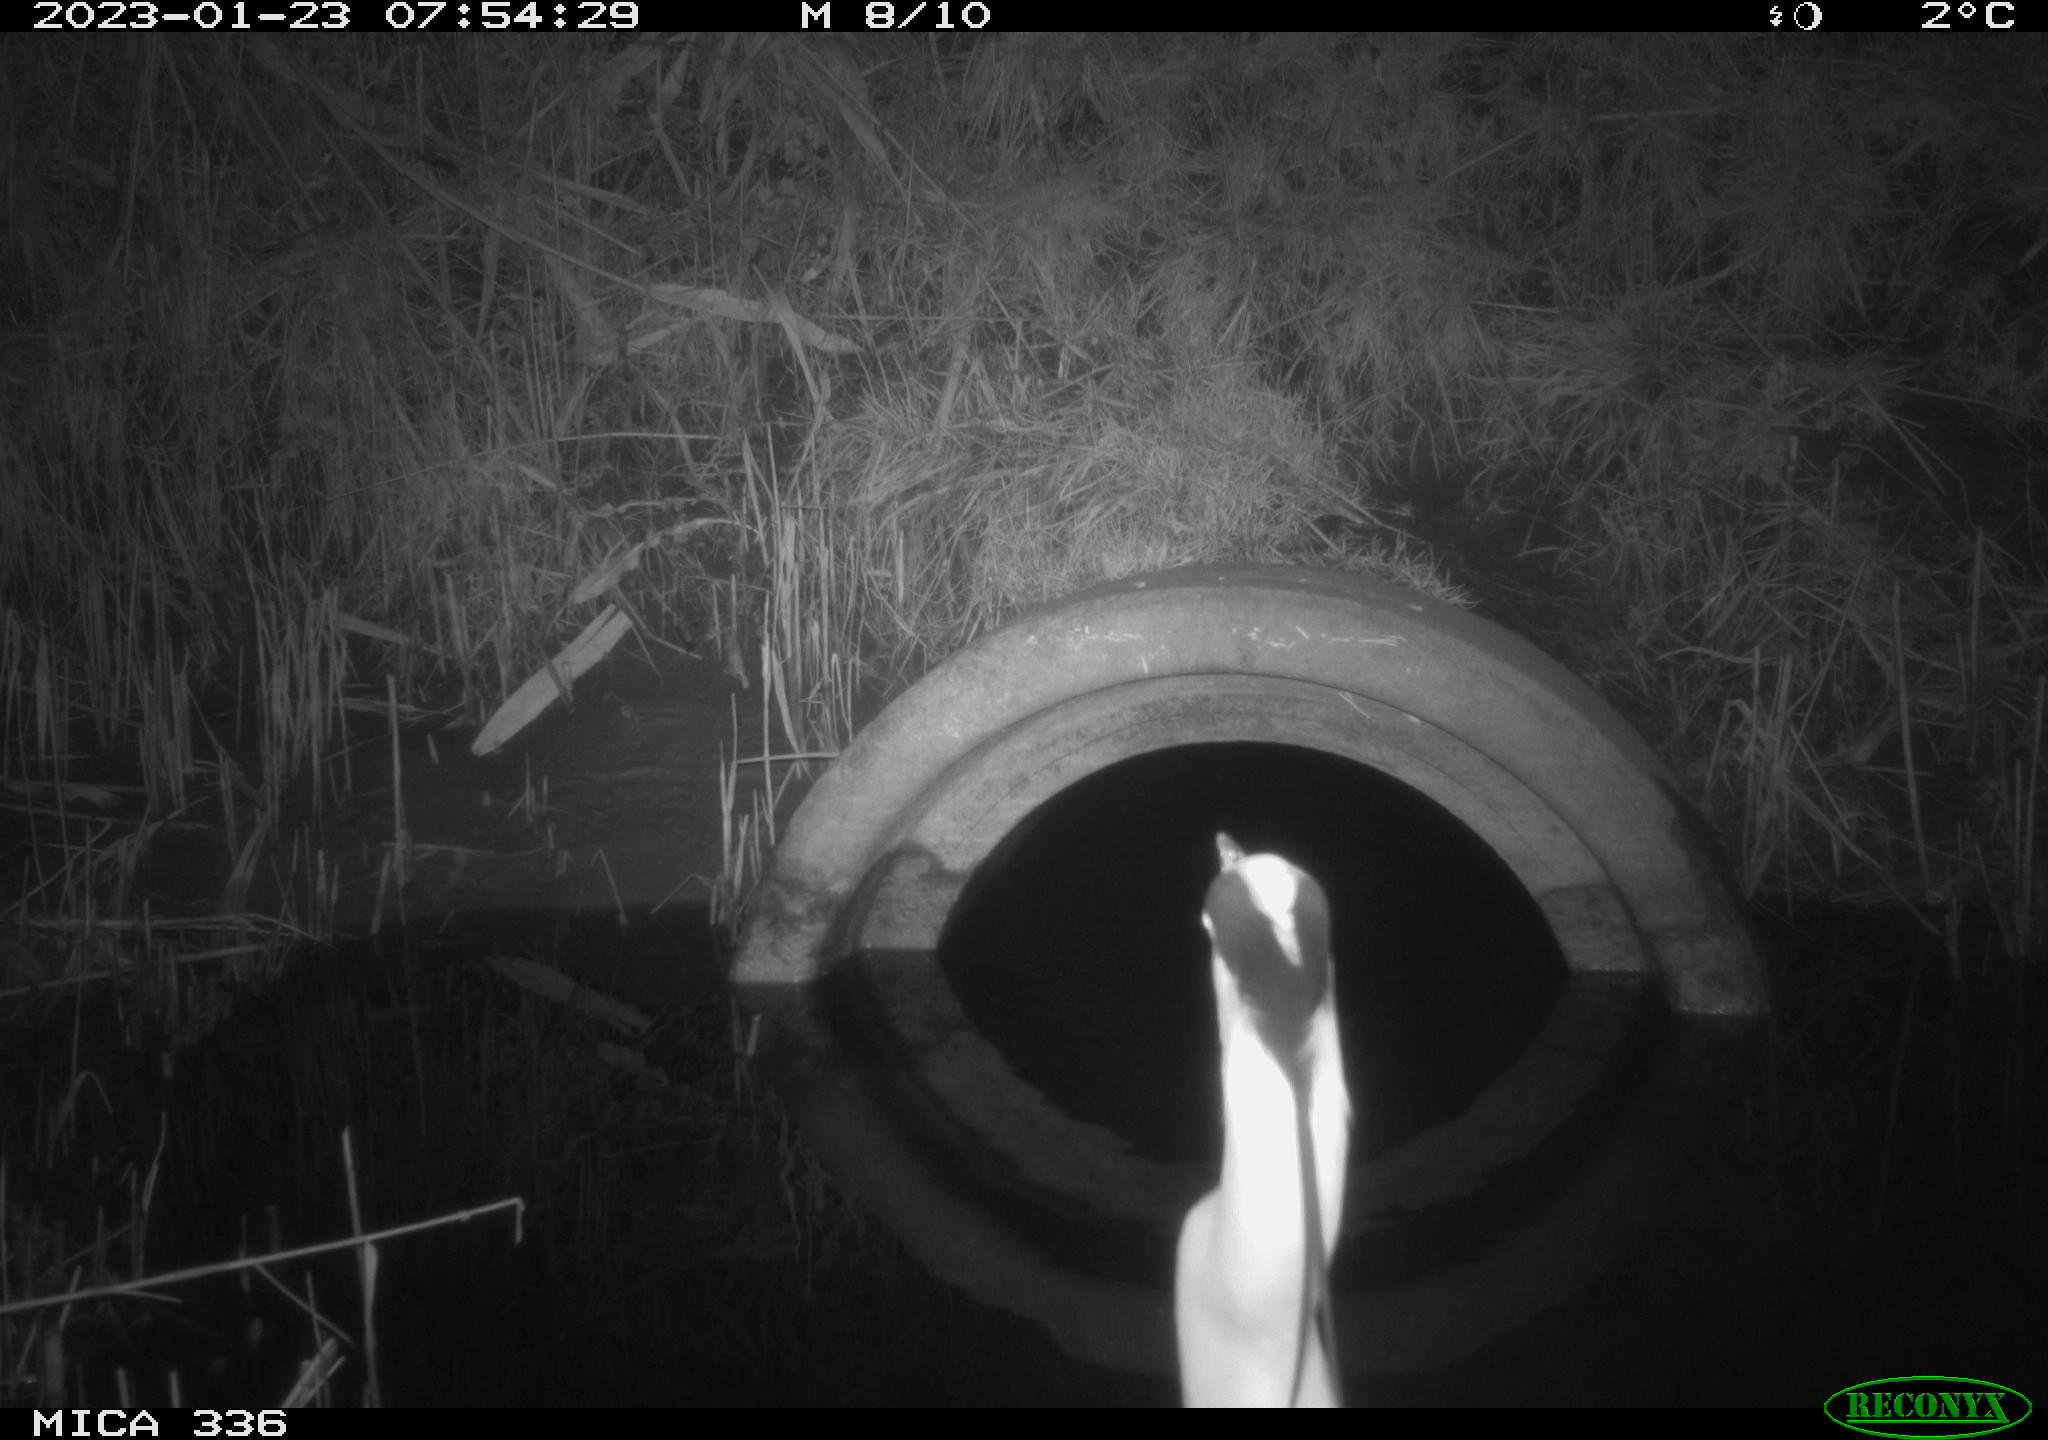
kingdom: Animalia
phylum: Chordata
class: Aves
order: Pelecaniformes
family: Ardeidae
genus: Ardea
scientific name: Ardea cinerea
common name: Grey heron
